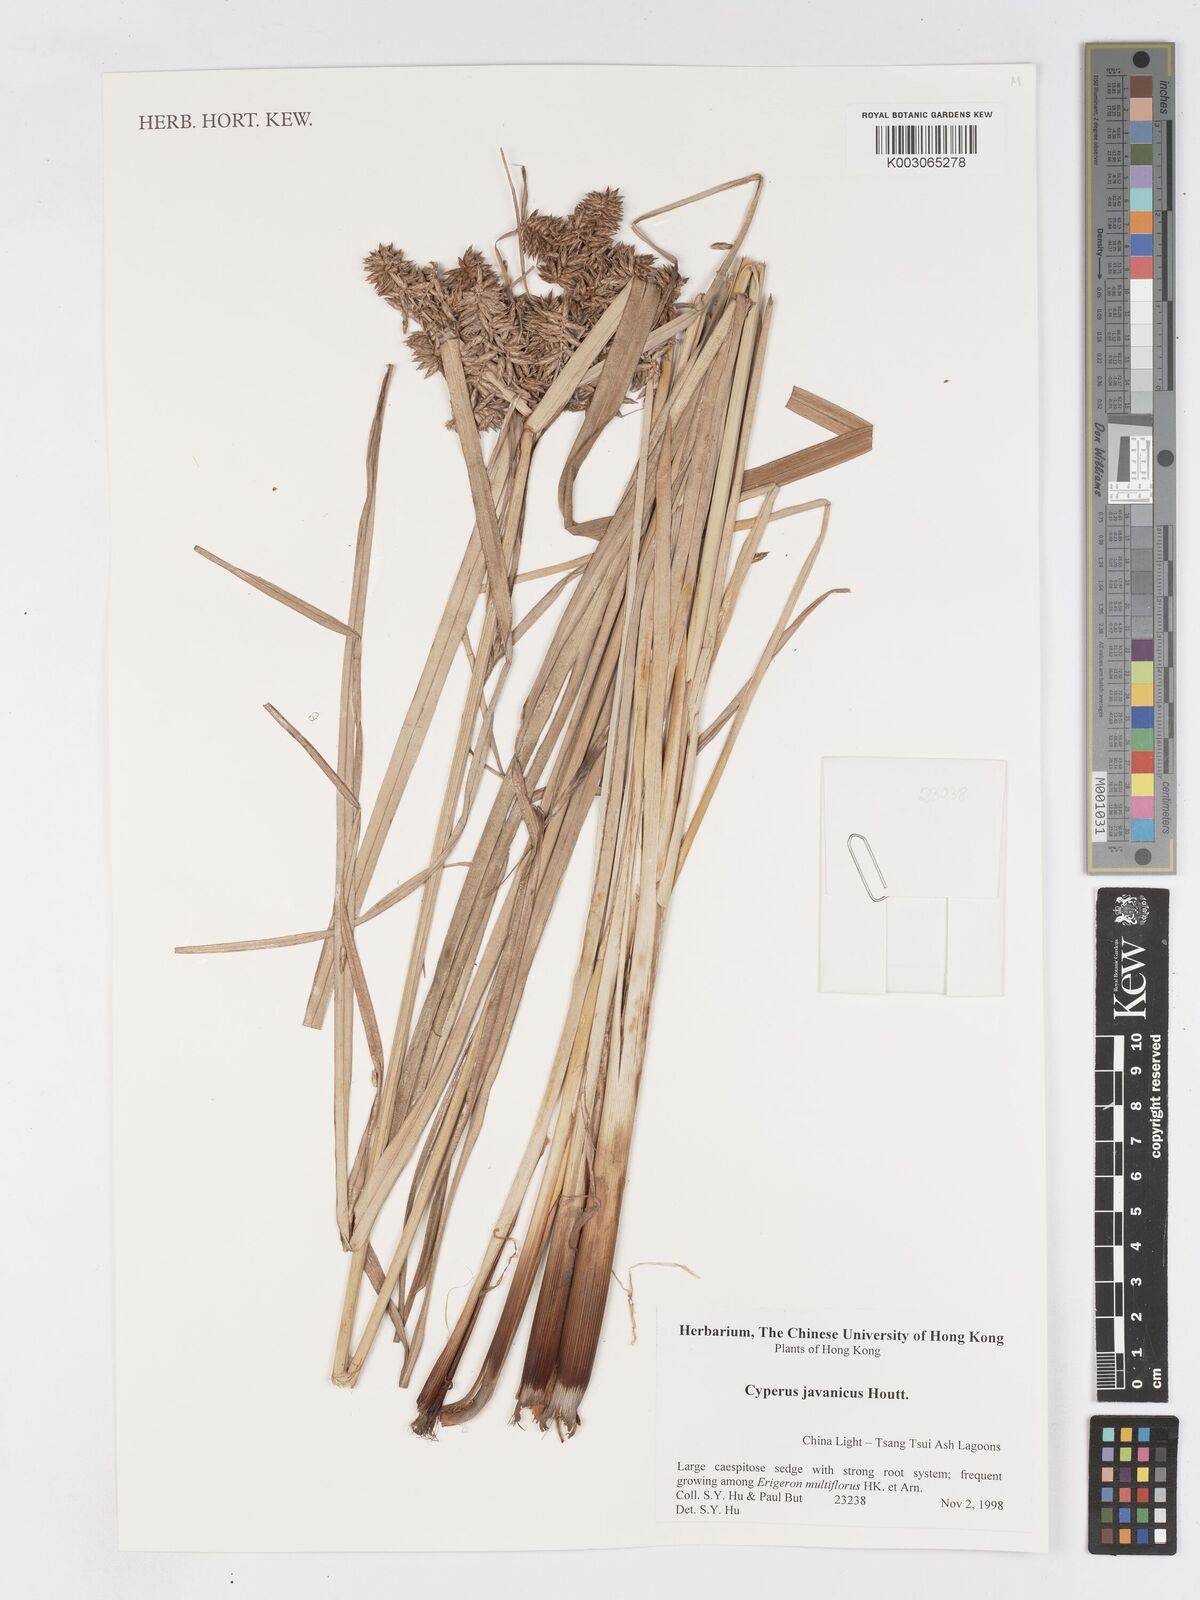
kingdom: Plantae
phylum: Tracheophyta
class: Liliopsida
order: Poales
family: Cyperaceae
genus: Cyperus
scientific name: Cyperus javanicus
